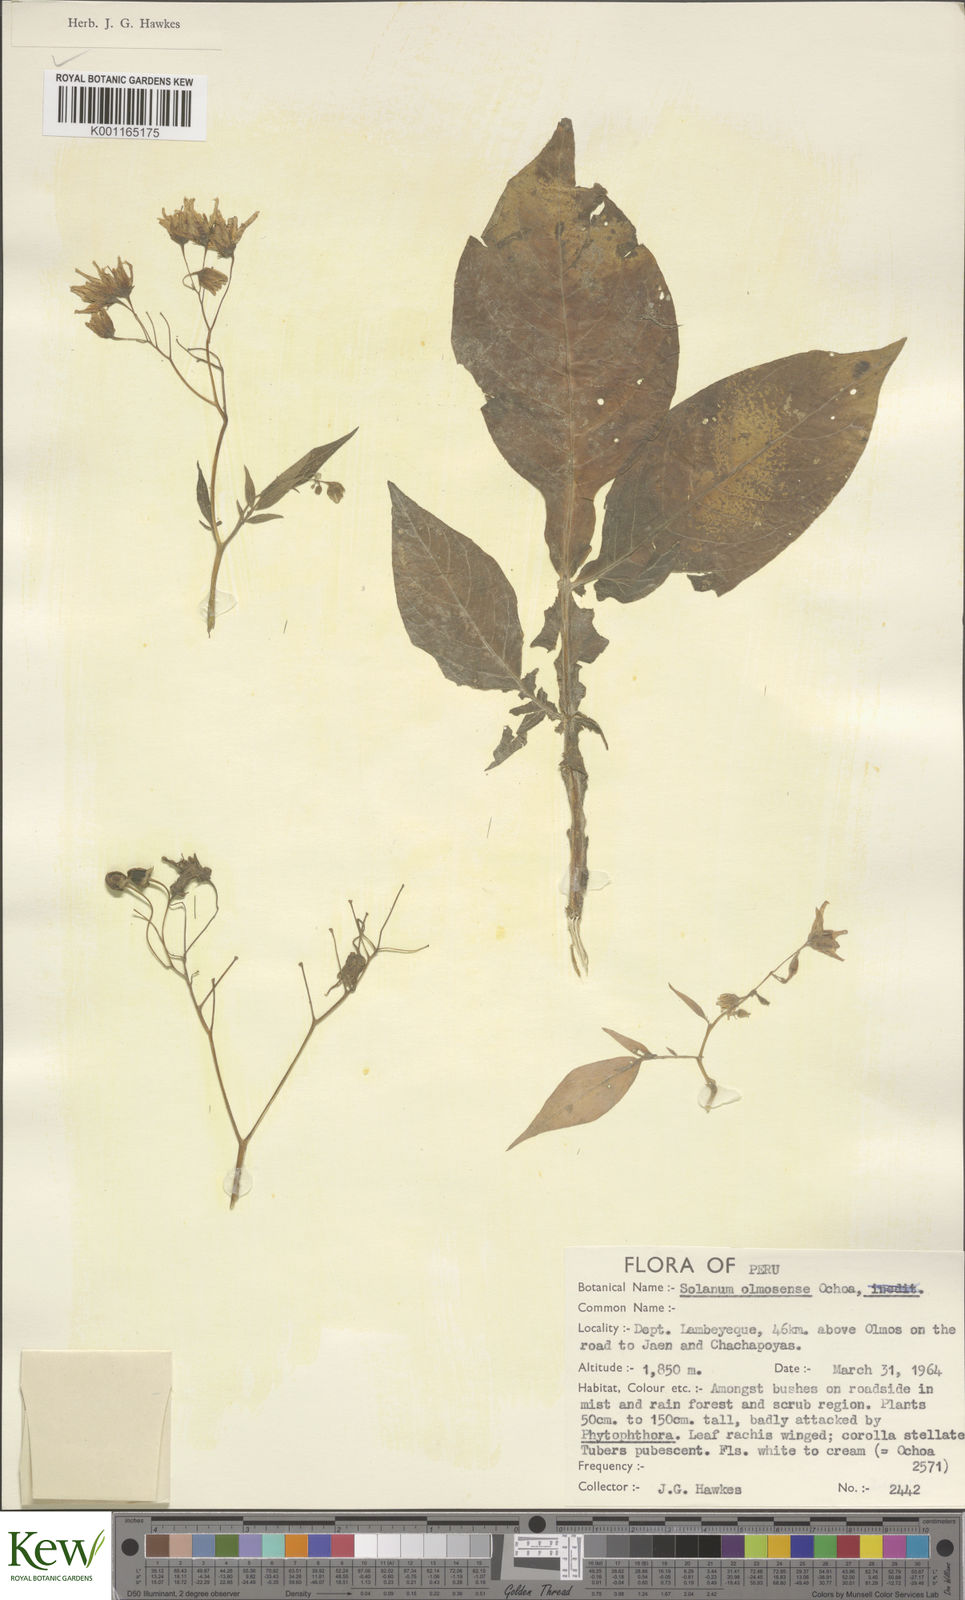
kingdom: Plantae
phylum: Tracheophyta
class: Magnoliopsida
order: Solanales
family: Solanaceae
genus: Solanum
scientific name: Solanum olmosense
